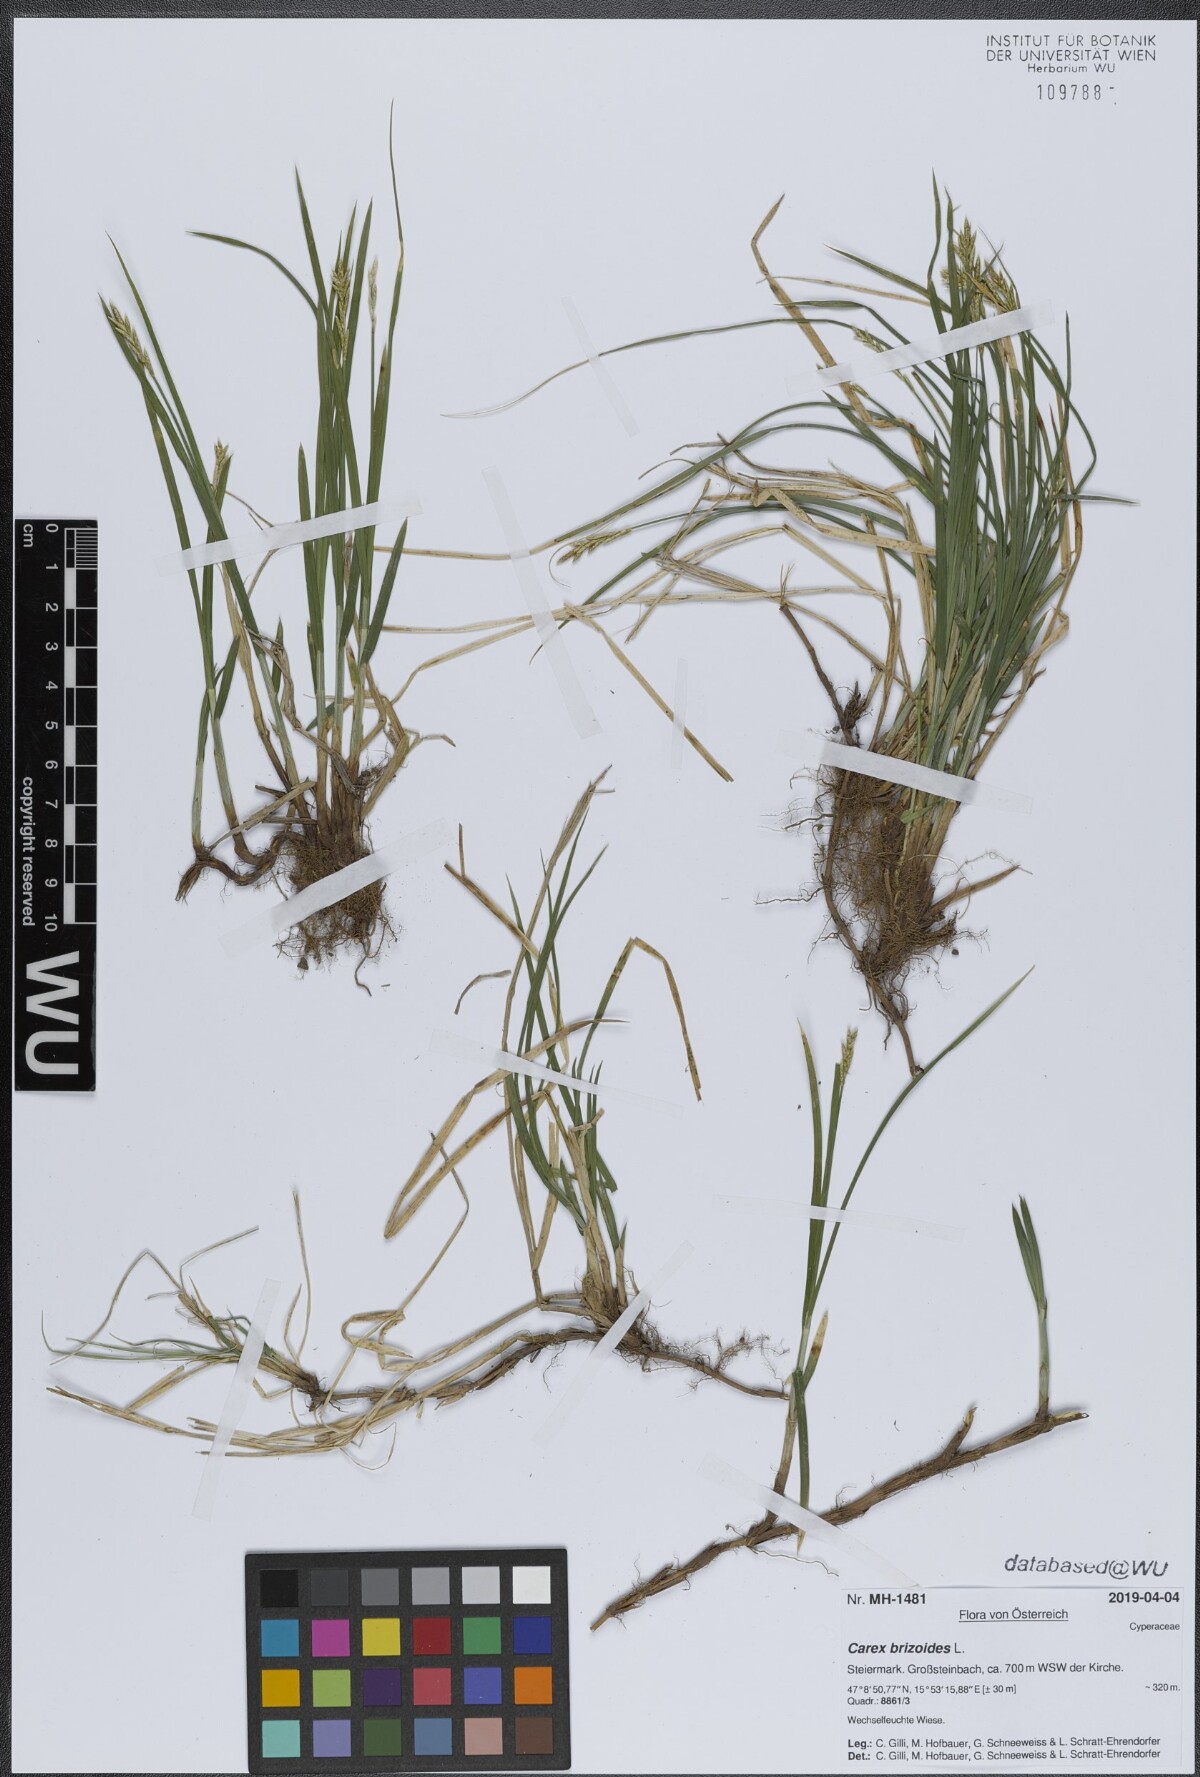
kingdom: Plantae
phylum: Tracheophyta
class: Liliopsida
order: Poales
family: Cyperaceae
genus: Carex
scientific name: Carex brizoides
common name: Quaking-grass sedge
